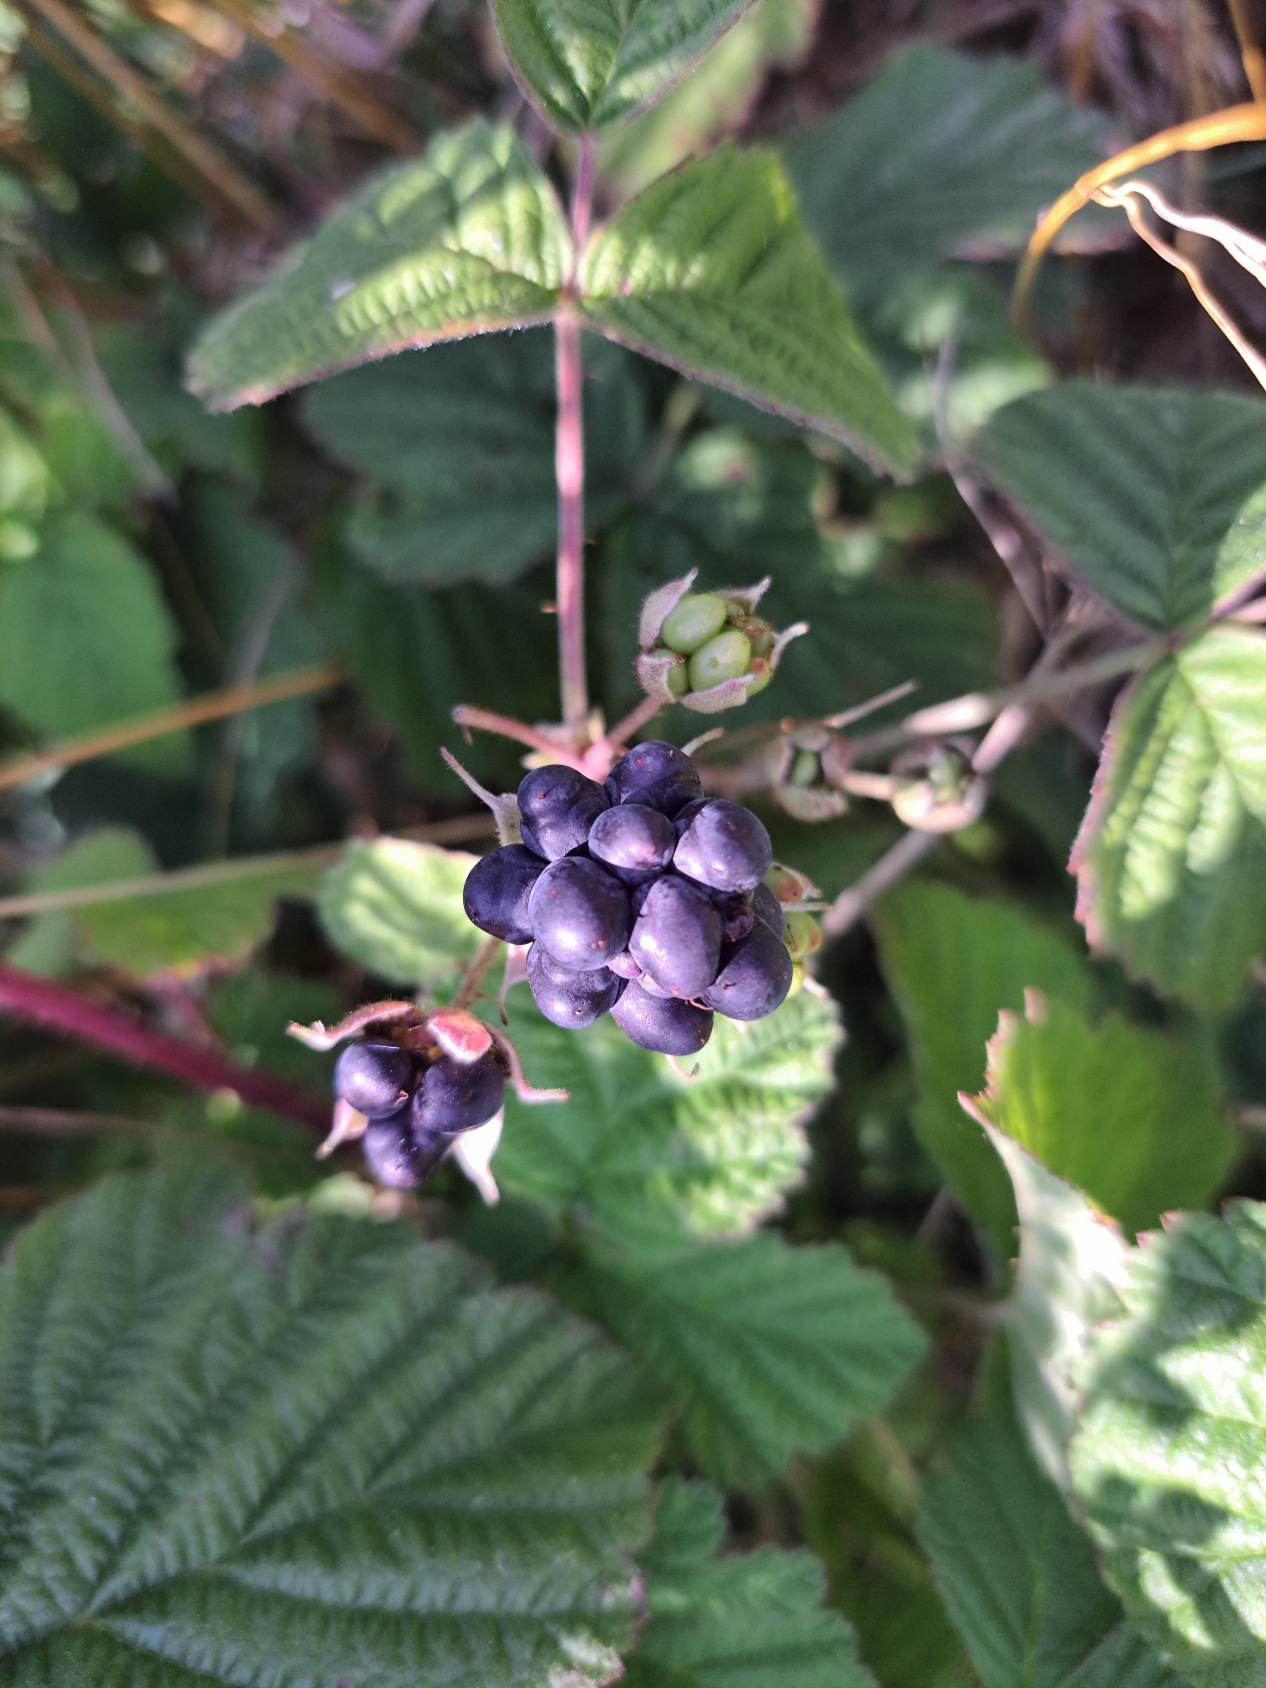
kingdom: Plantae
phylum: Tracheophyta
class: Magnoliopsida
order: Rosales
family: Rosaceae
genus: Rubus
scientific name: Rubus caesius
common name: Korbær
